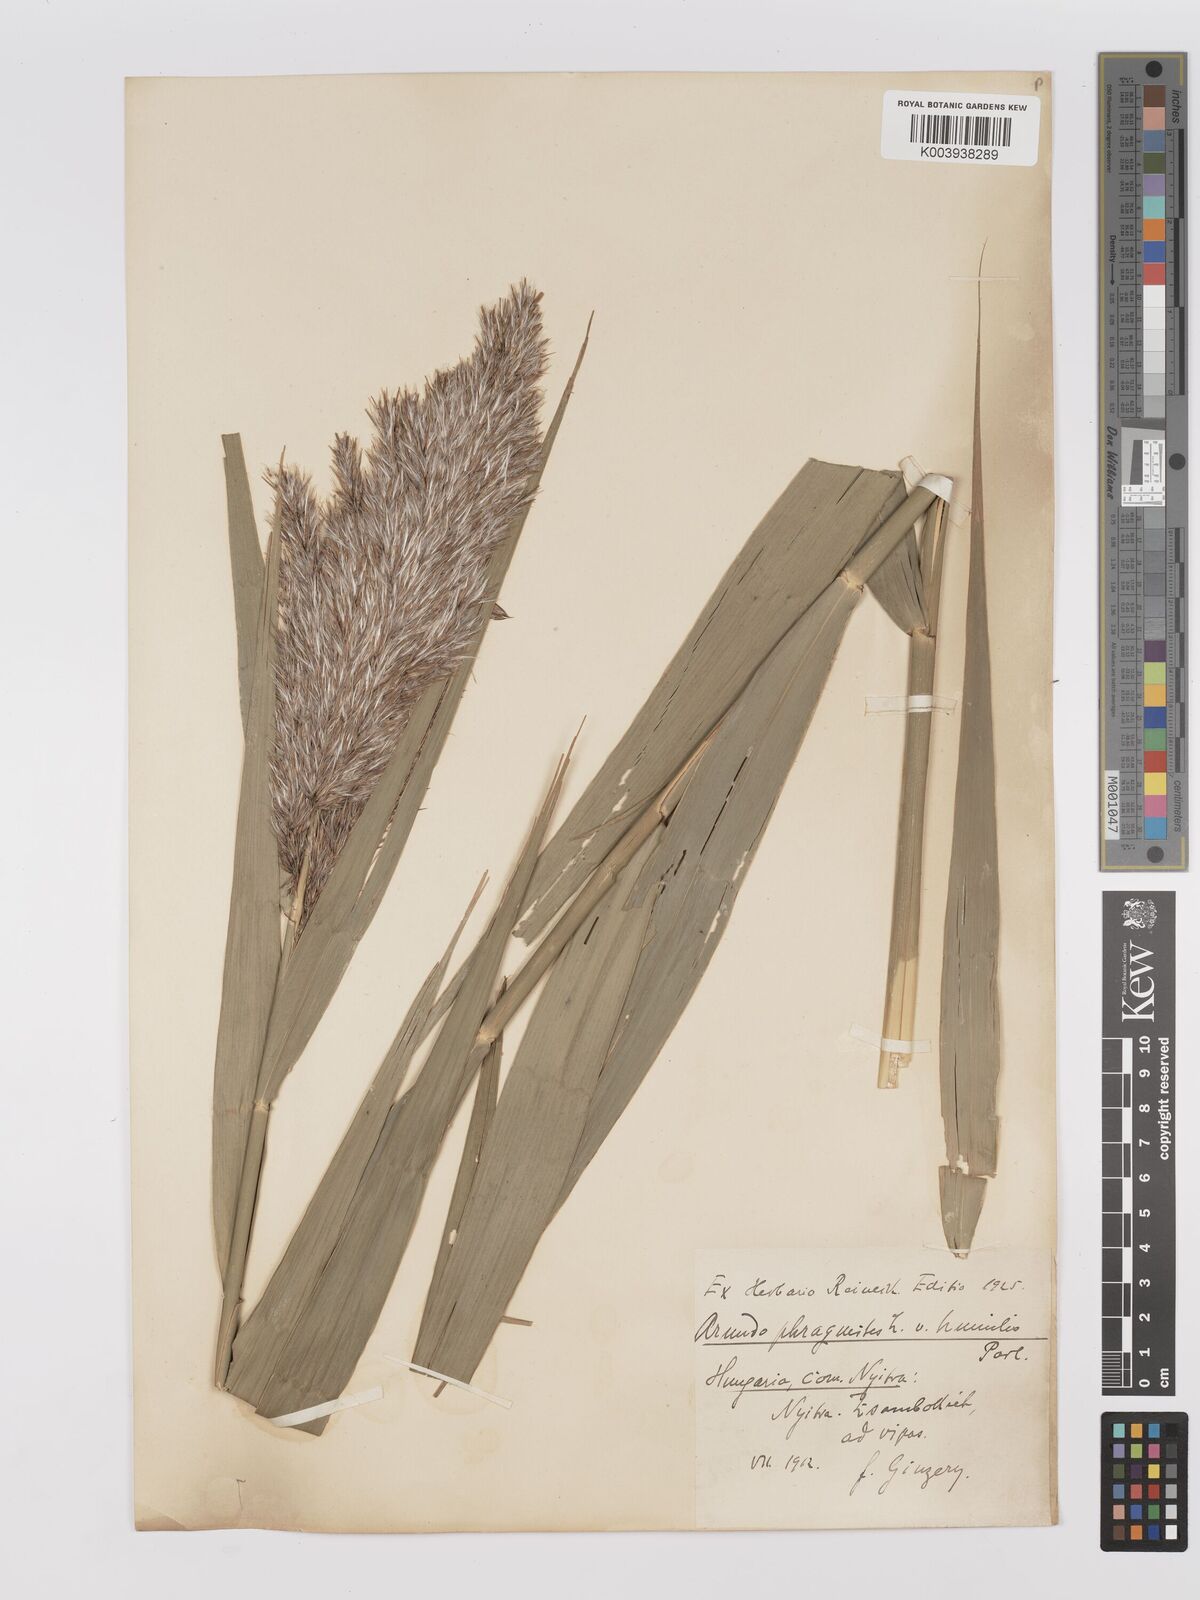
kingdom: Plantae
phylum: Tracheophyta
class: Liliopsida
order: Poales
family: Poaceae
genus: Phragmites
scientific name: Phragmites australis
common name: Common reed
